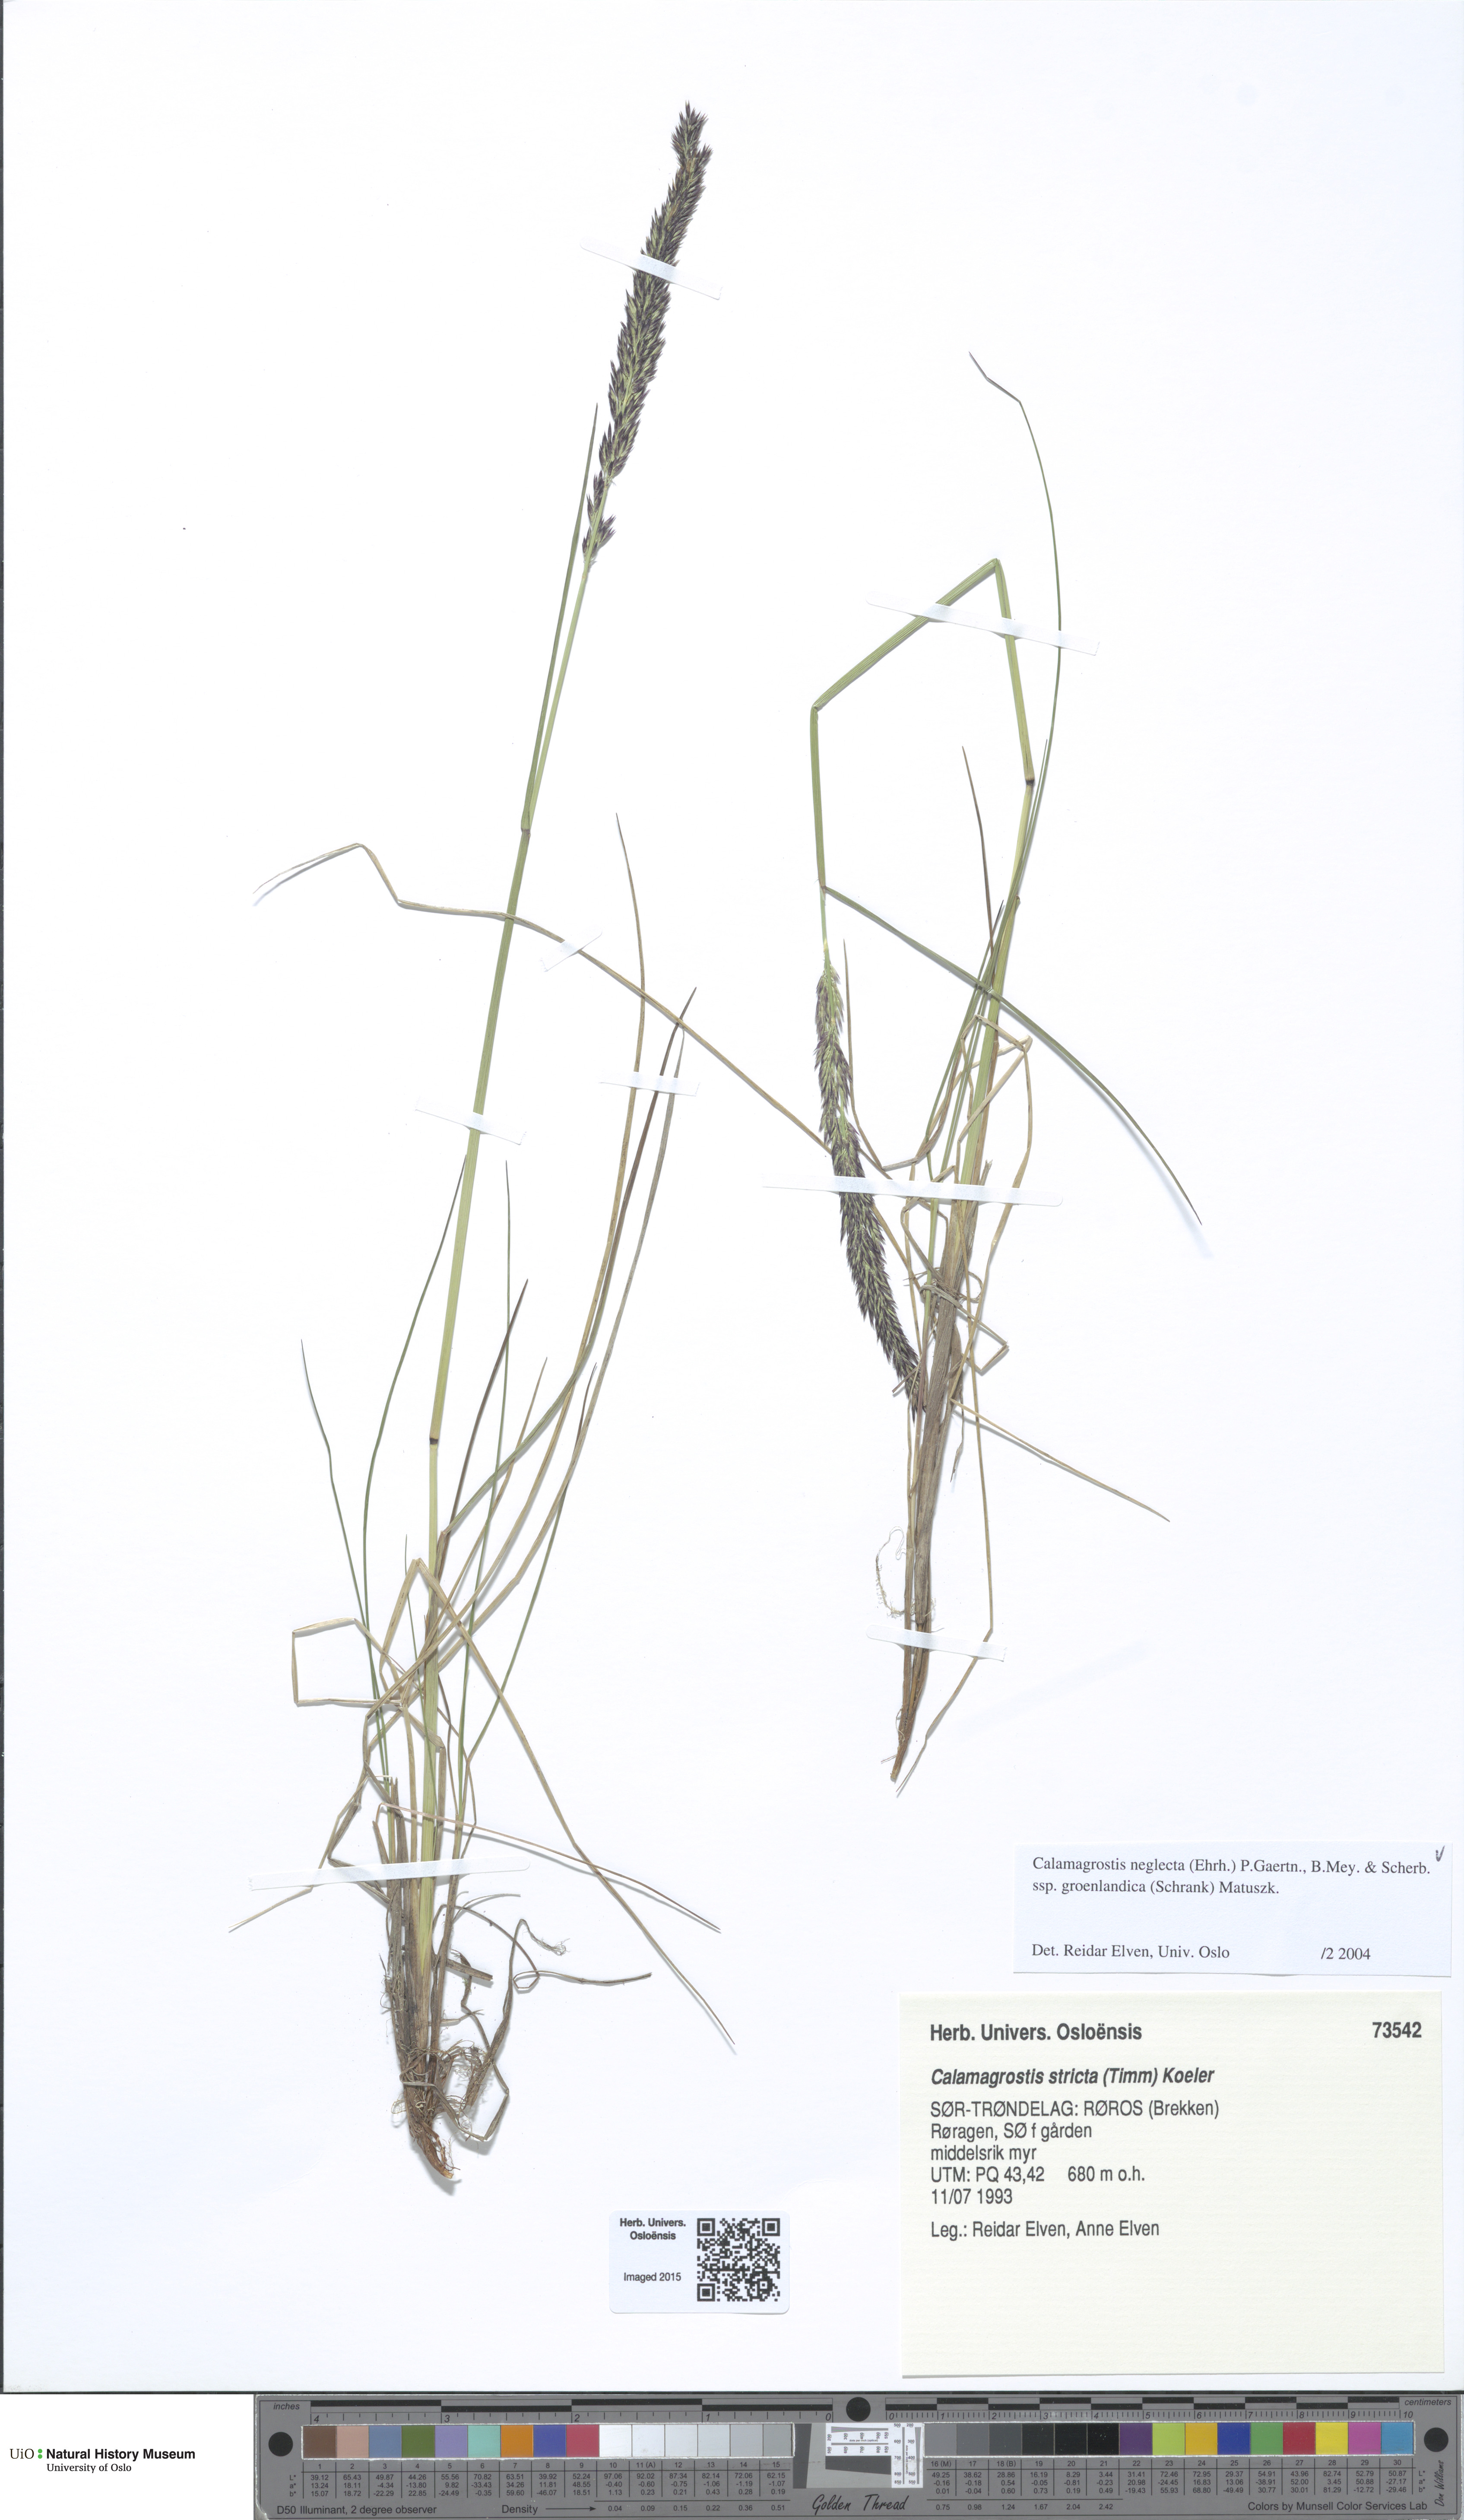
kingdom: Plantae
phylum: Tracheophyta
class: Liliopsida
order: Poales
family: Poaceae
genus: Calamagrostis
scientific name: Calamagrostis stricta
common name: Narrow small-reed
